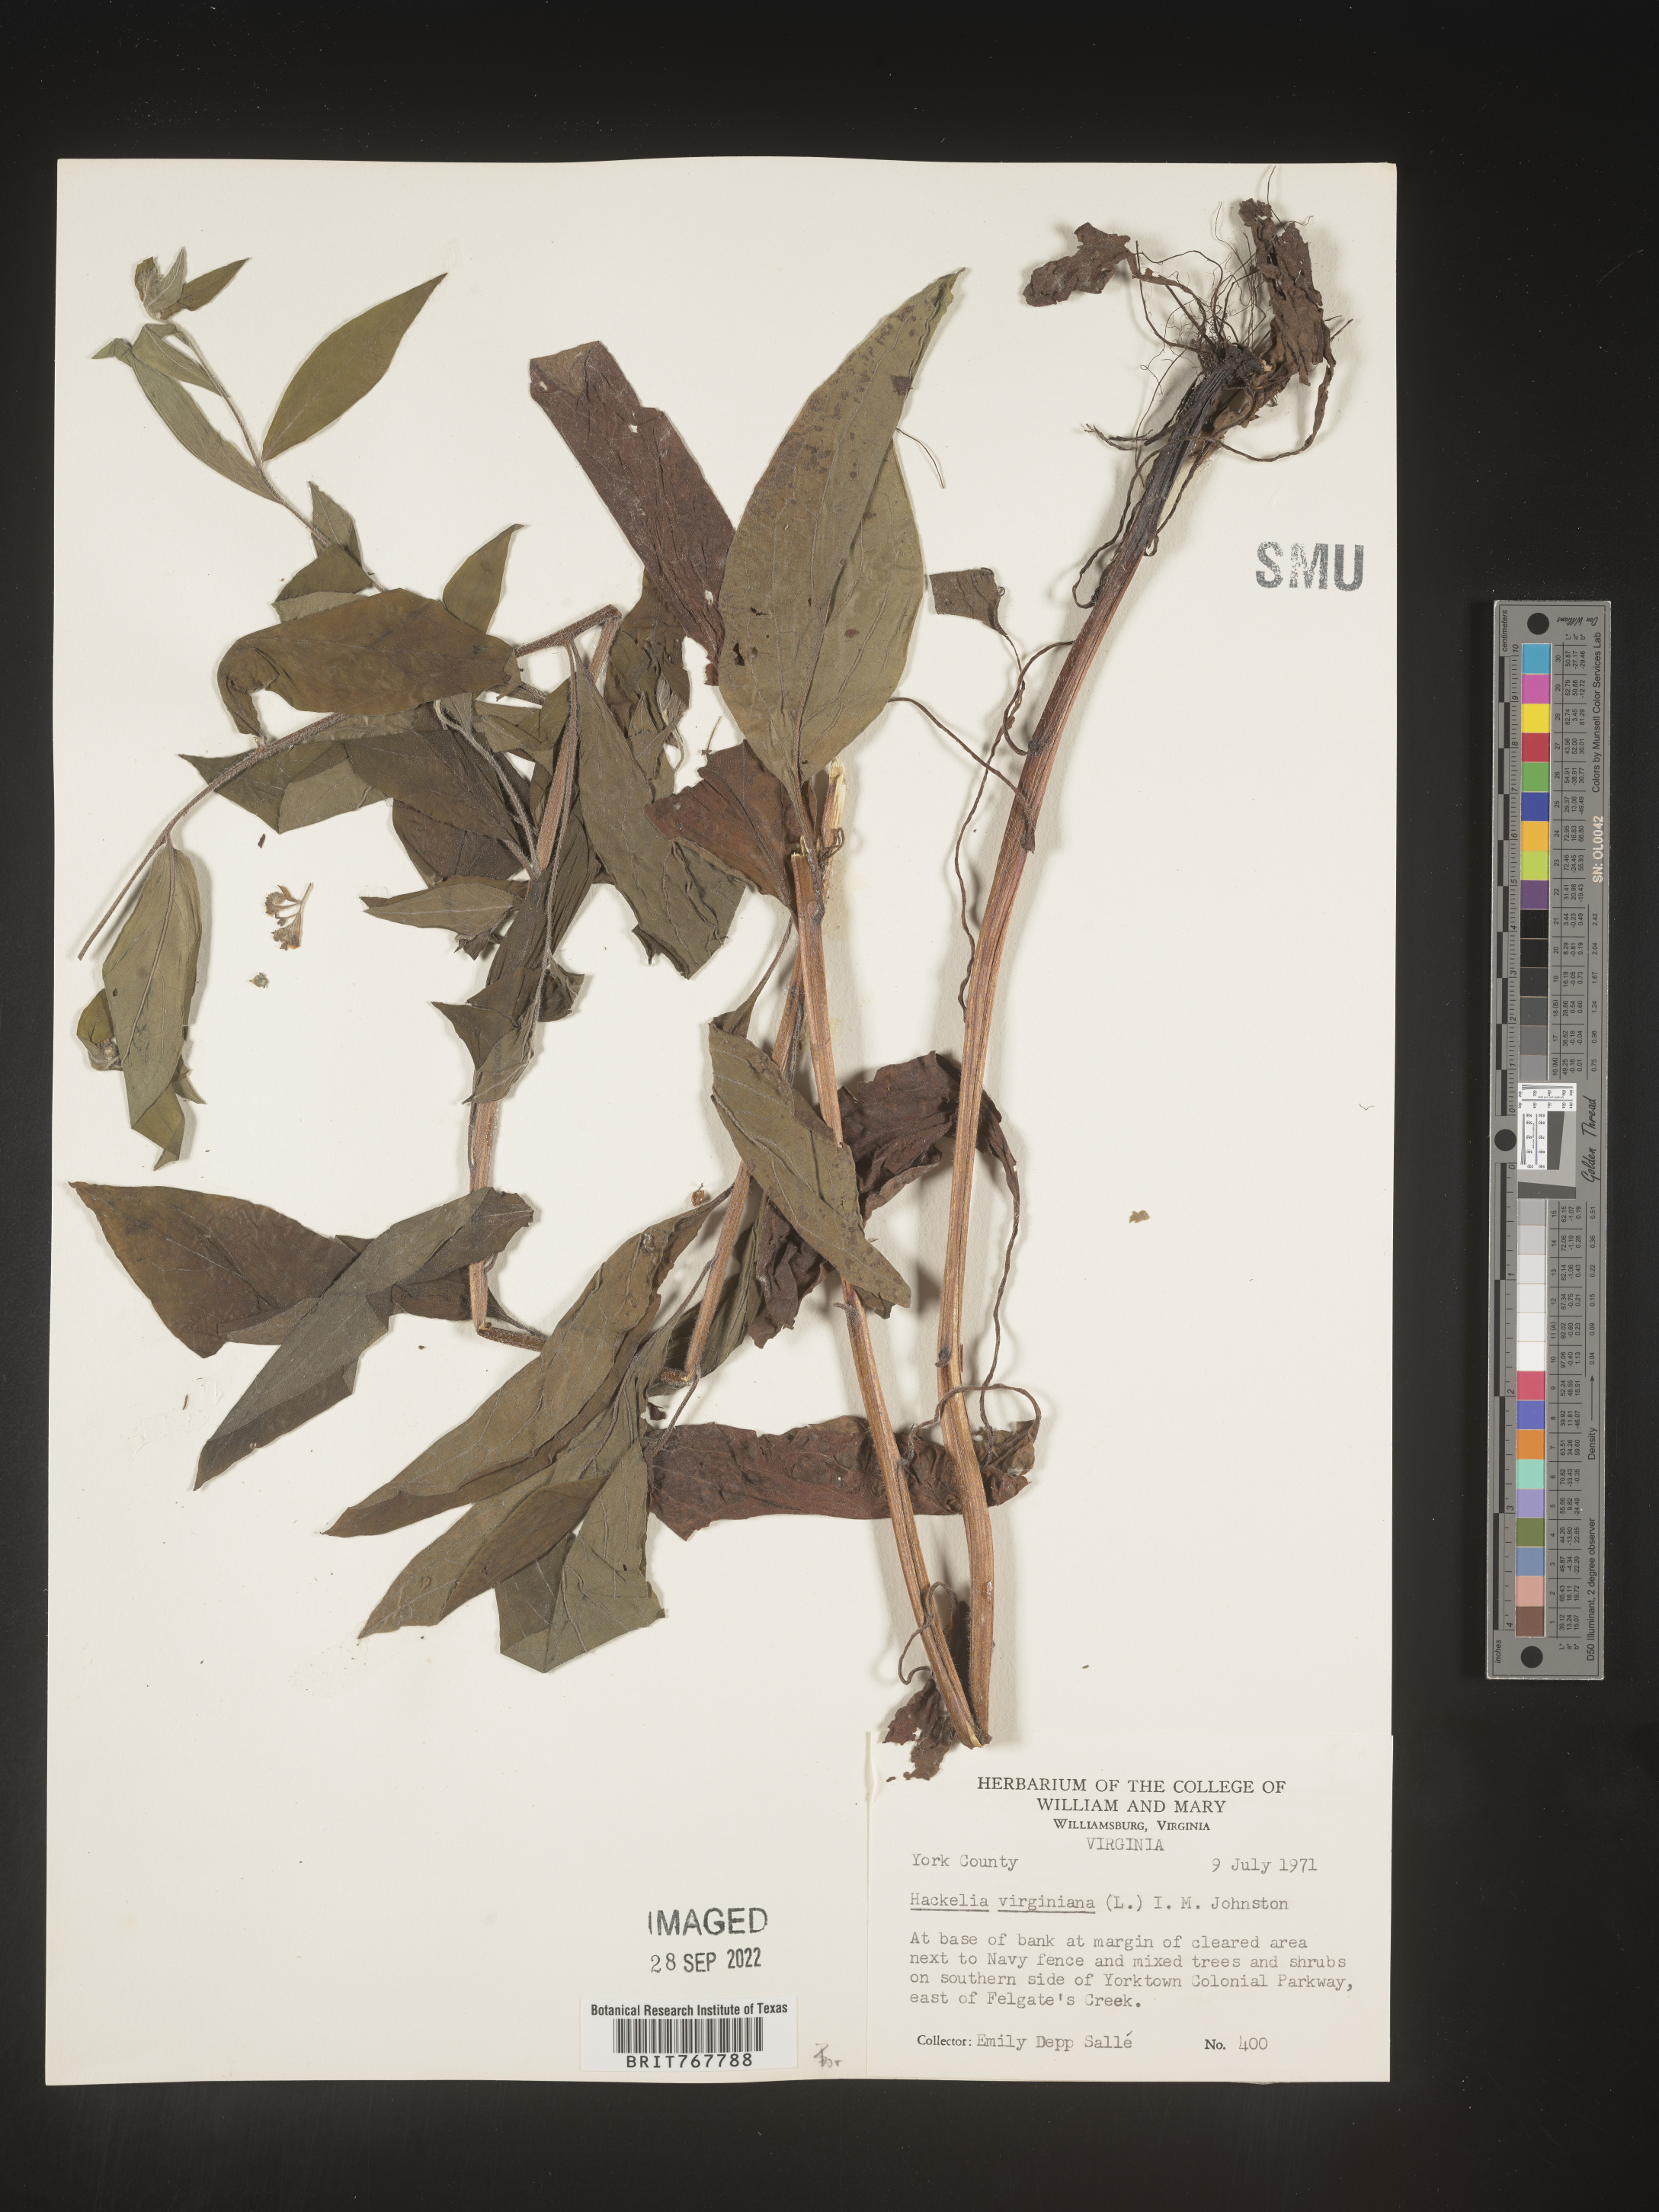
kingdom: Plantae
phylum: Tracheophyta
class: Magnoliopsida
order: Boraginales
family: Boraginaceae
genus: Hackelia
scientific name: Hackelia virginiana
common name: Beggar's-lice
